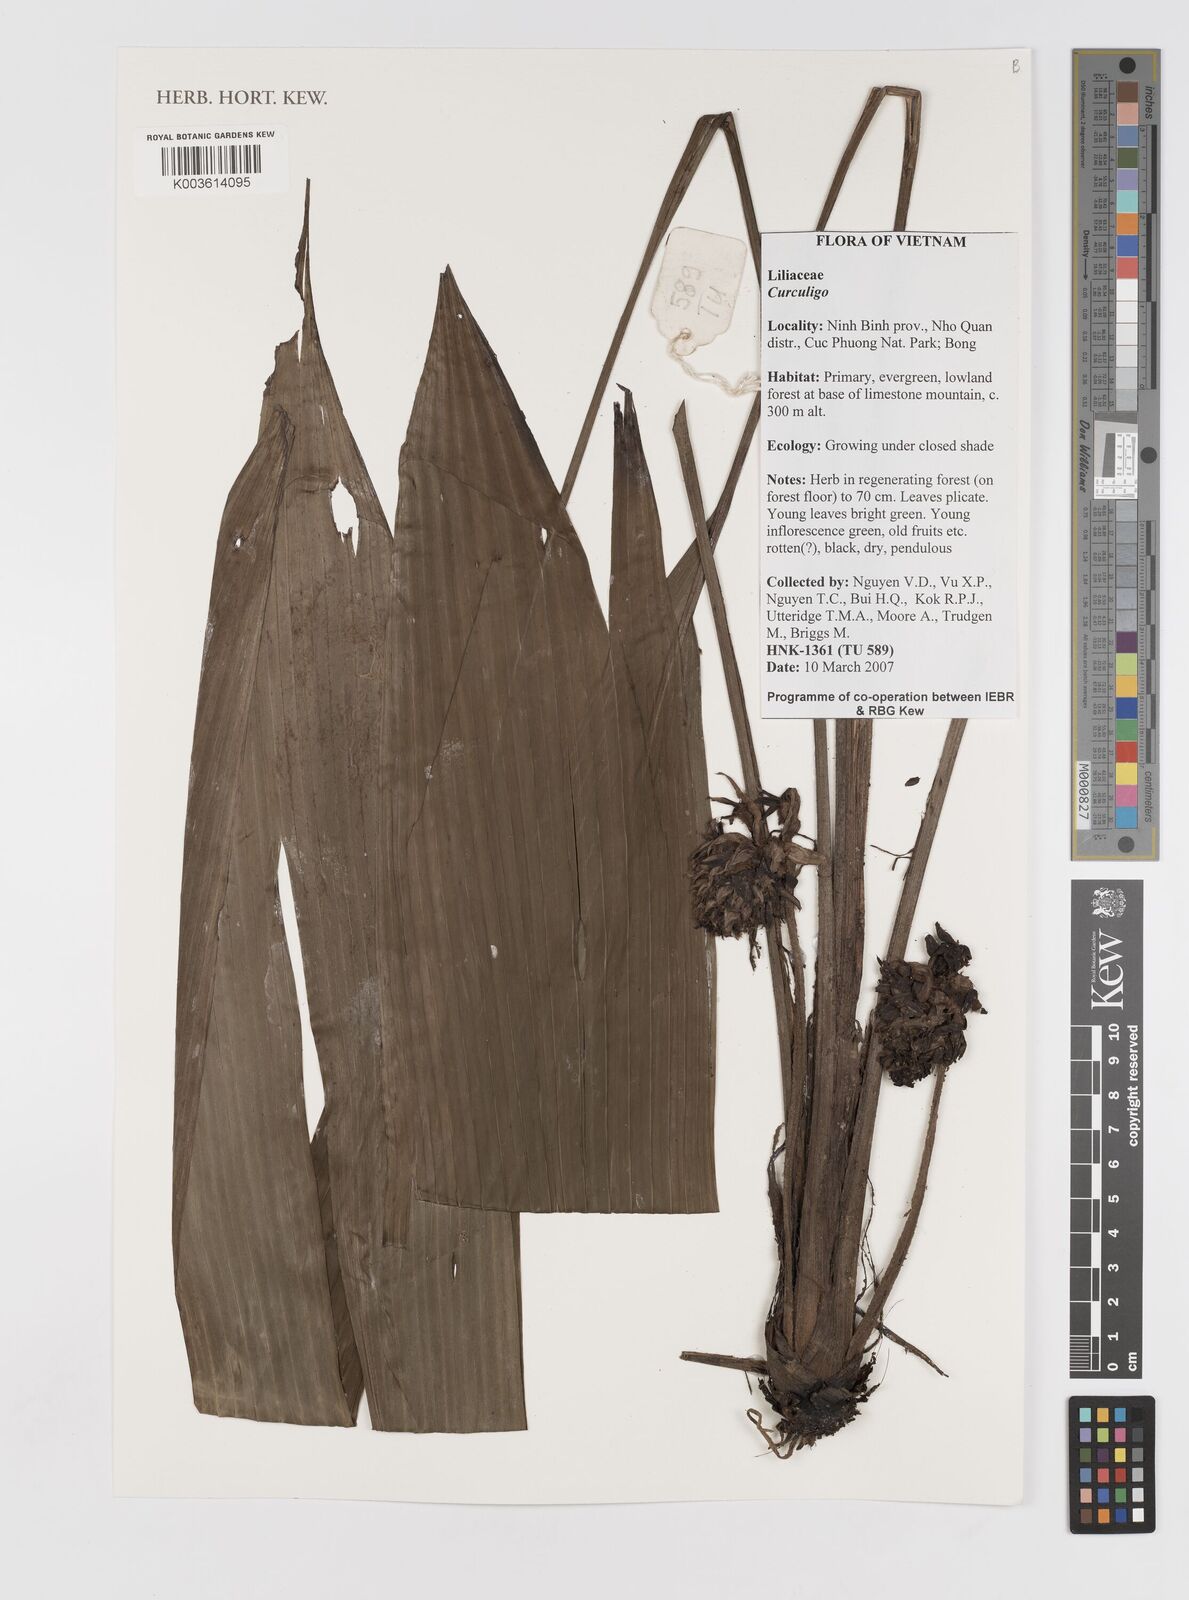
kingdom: Plantae
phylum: Tracheophyta
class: Liliopsida
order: Asparagales
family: Hypoxidaceae
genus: Curculigo
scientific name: Curculigo
